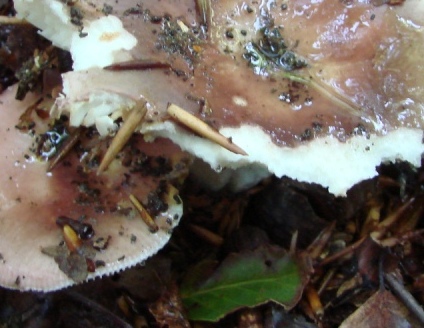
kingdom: Fungi
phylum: Basidiomycota
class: Agaricomycetes
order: Russulales
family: Russulaceae
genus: Russula
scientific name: Russula cyanoxantha
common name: broget skørhat
